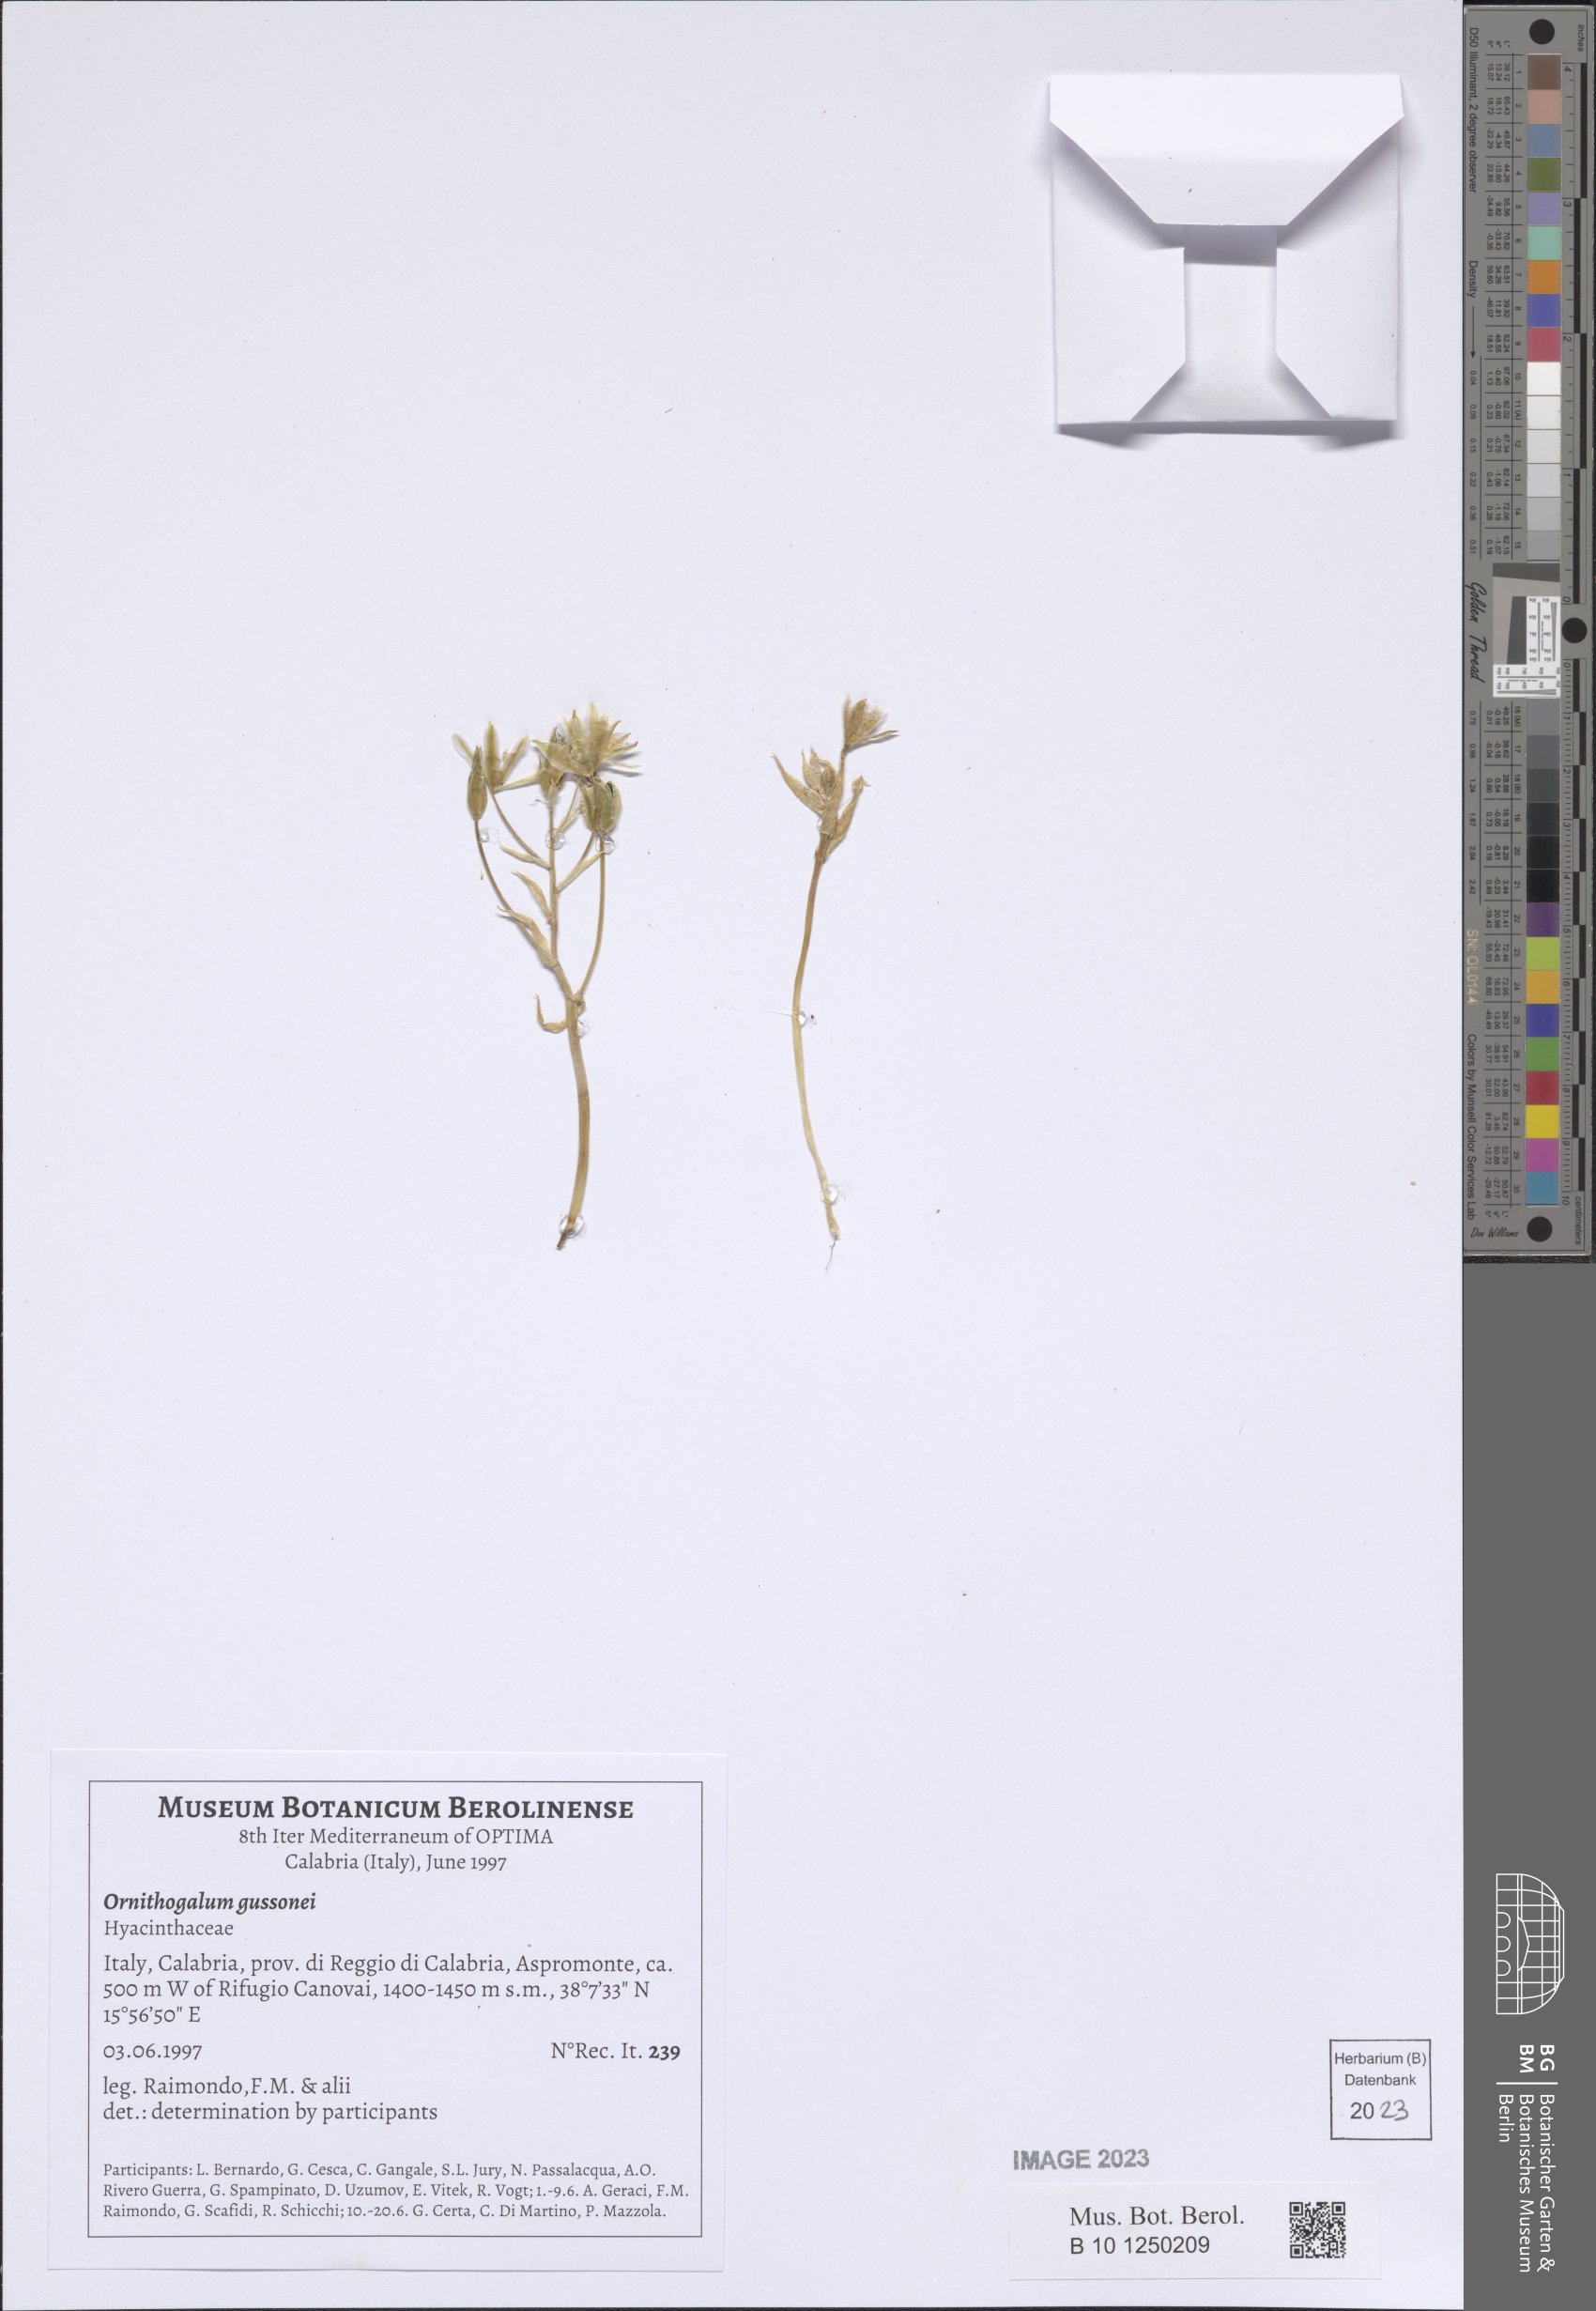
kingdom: Plantae
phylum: Tracheophyta
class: Liliopsida
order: Asparagales
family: Asparagaceae
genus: Ornithogalum
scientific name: Ornithogalum gussonei
